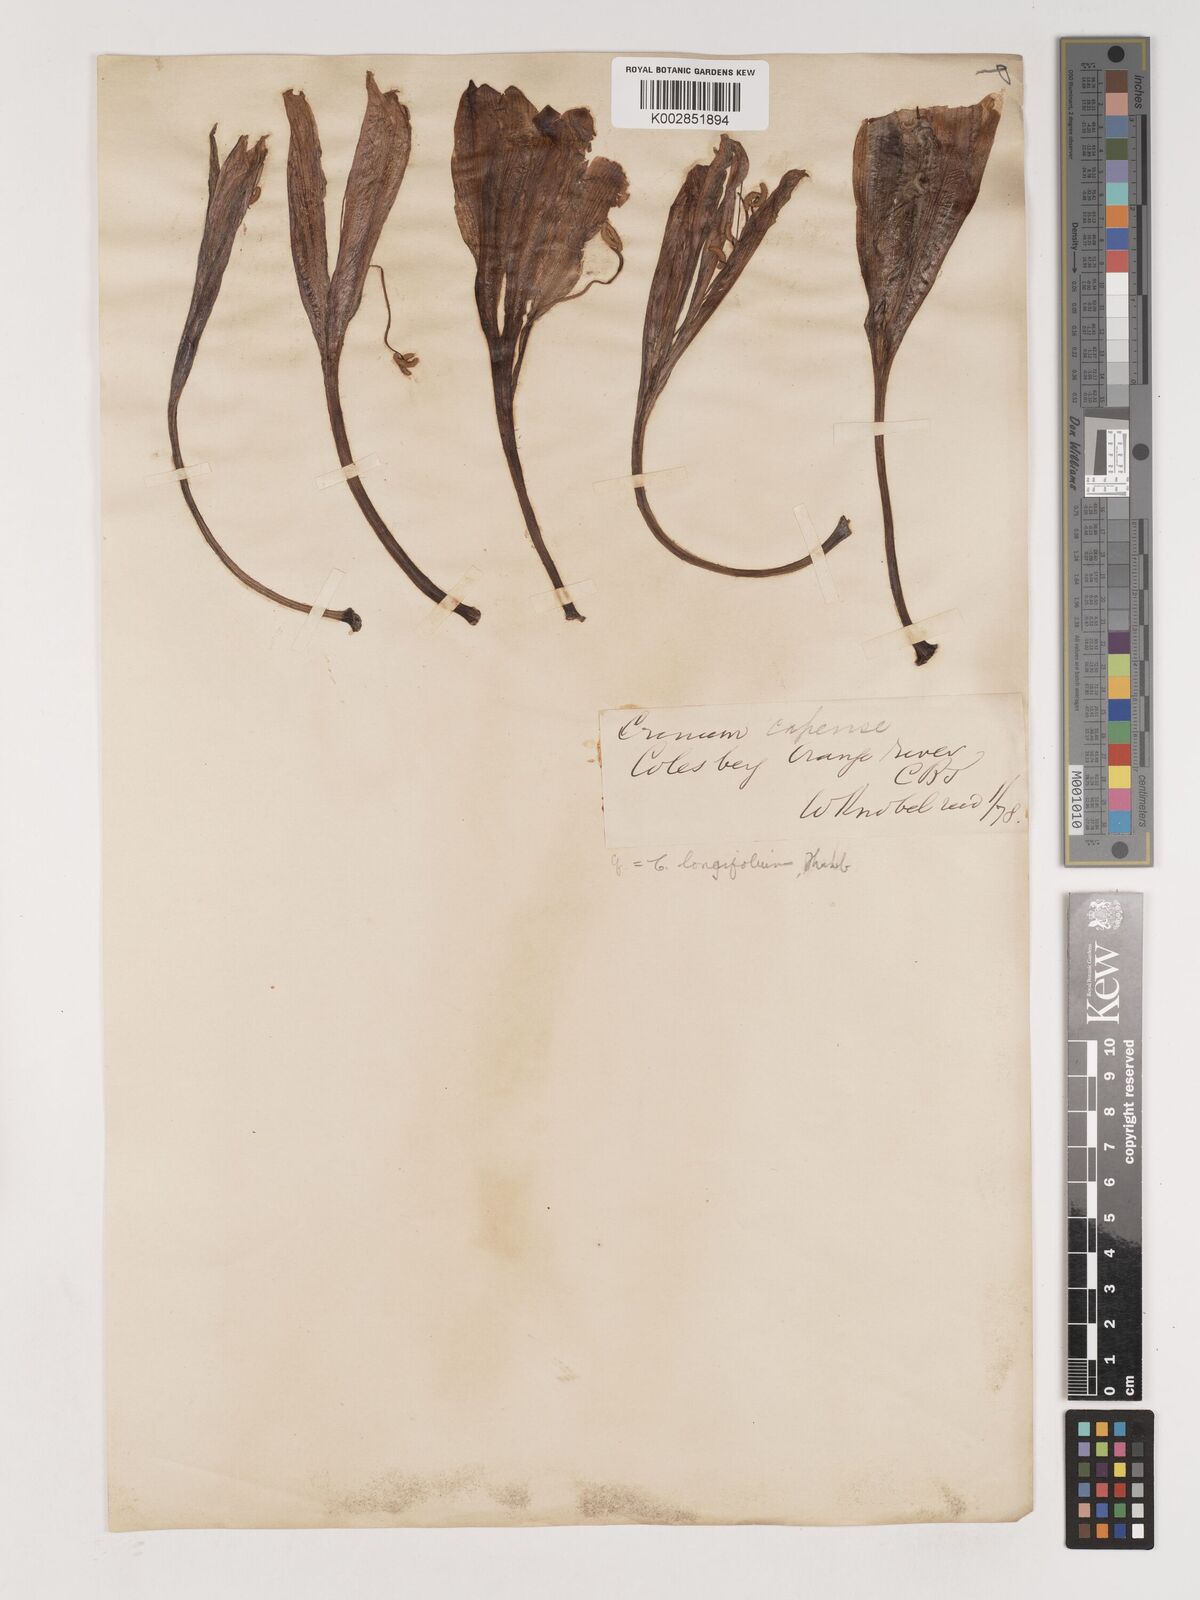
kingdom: Plantae
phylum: Tracheophyta
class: Liliopsida
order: Asparagales
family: Amaryllidaceae
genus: Crinum
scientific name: Crinum bulbispermum
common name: Hardy swamplily
